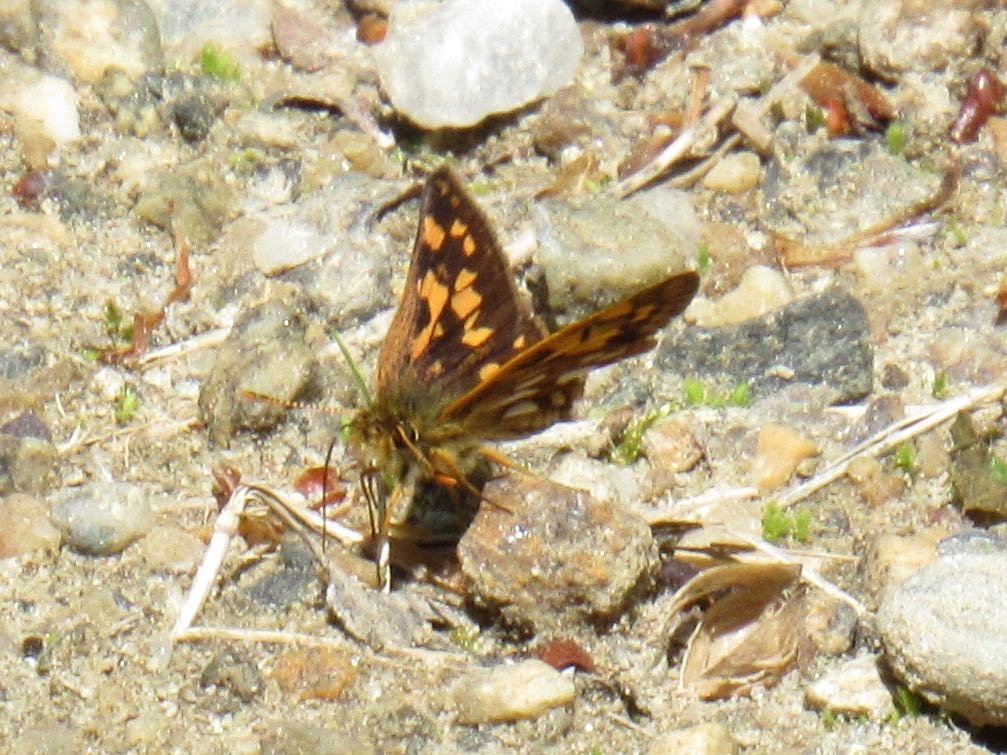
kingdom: Animalia
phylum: Arthropoda
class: Insecta
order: Lepidoptera
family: Hesperiidae
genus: Carterocephalus
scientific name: Carterocephalus palaemon
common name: Chequered Skipper
